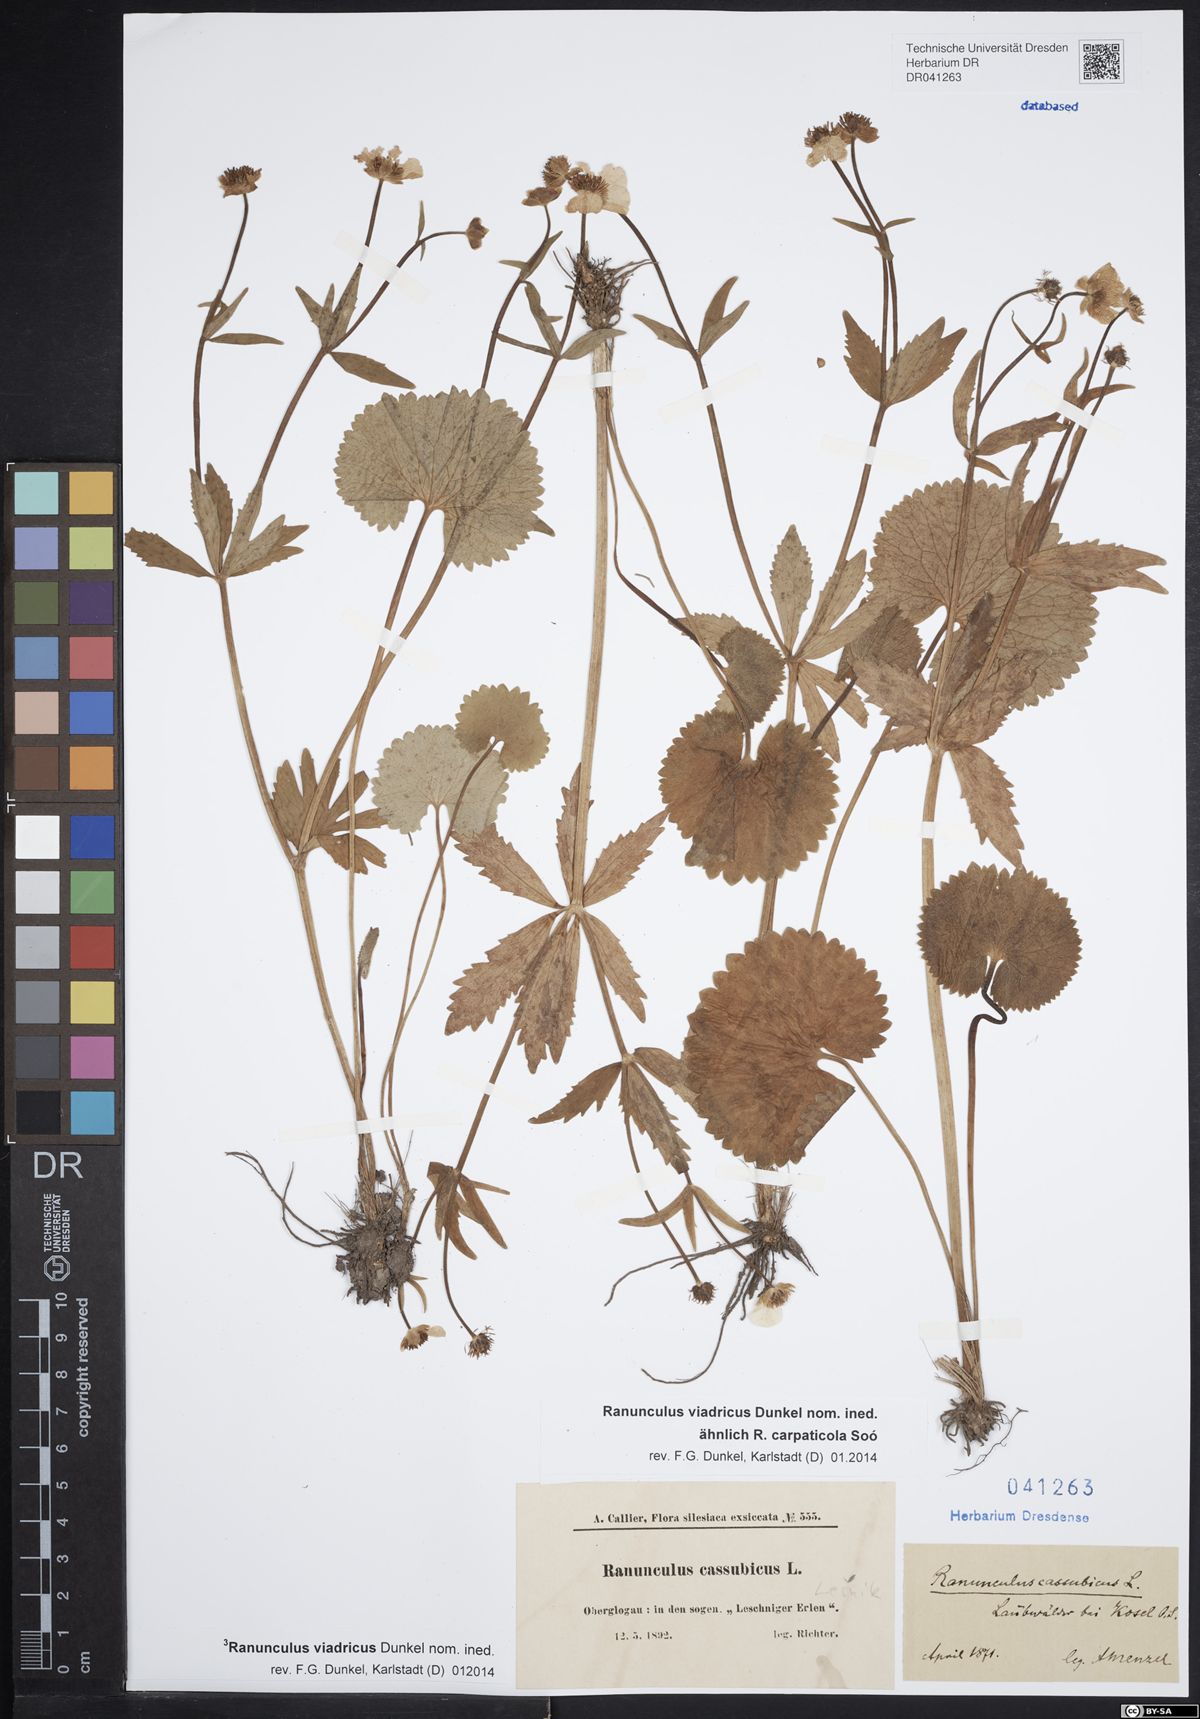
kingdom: Plantae
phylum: Tracheophyta
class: Magnoliopsida
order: Ranunculales
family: Ranunculaceae
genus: Ranunculus
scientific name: Ranunculus cassubicus
